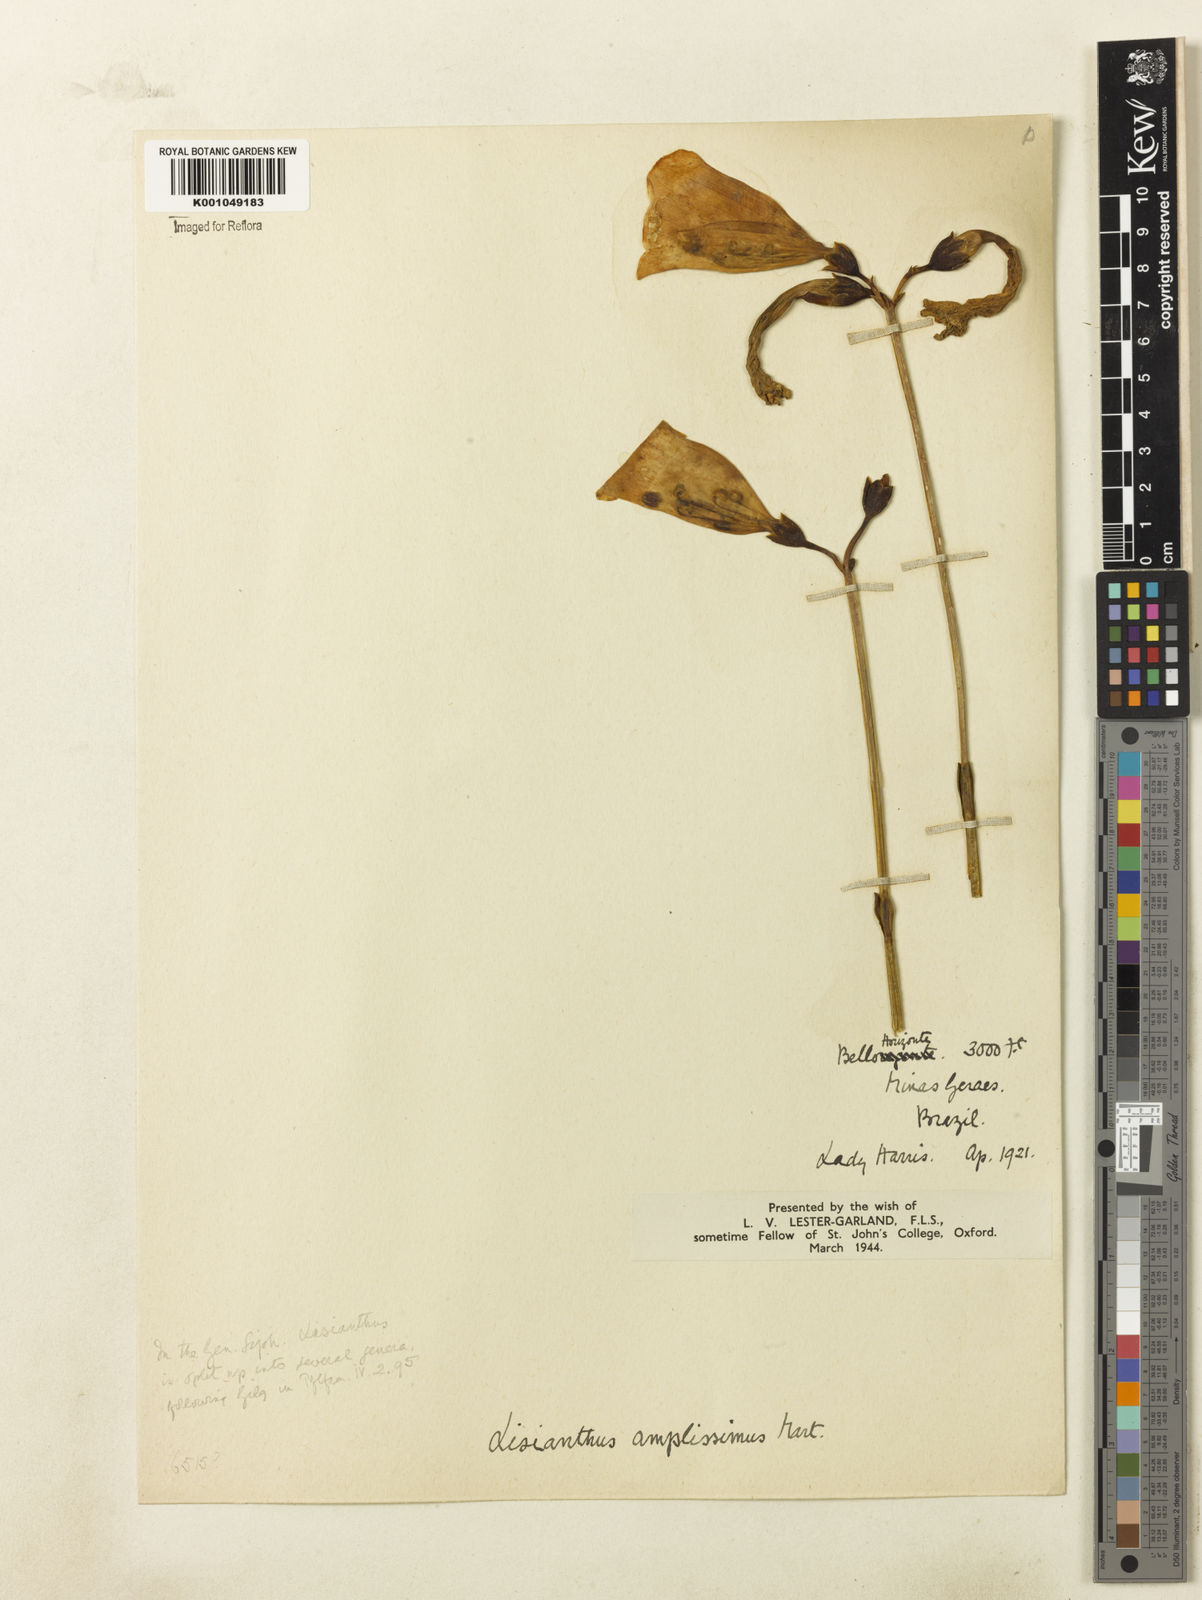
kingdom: Plantae
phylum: Tracheophyta
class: Magnoliopsida
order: Gentianales
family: Gentianaceae
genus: Calolisianthus
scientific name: Calolisianthus amplissimus
